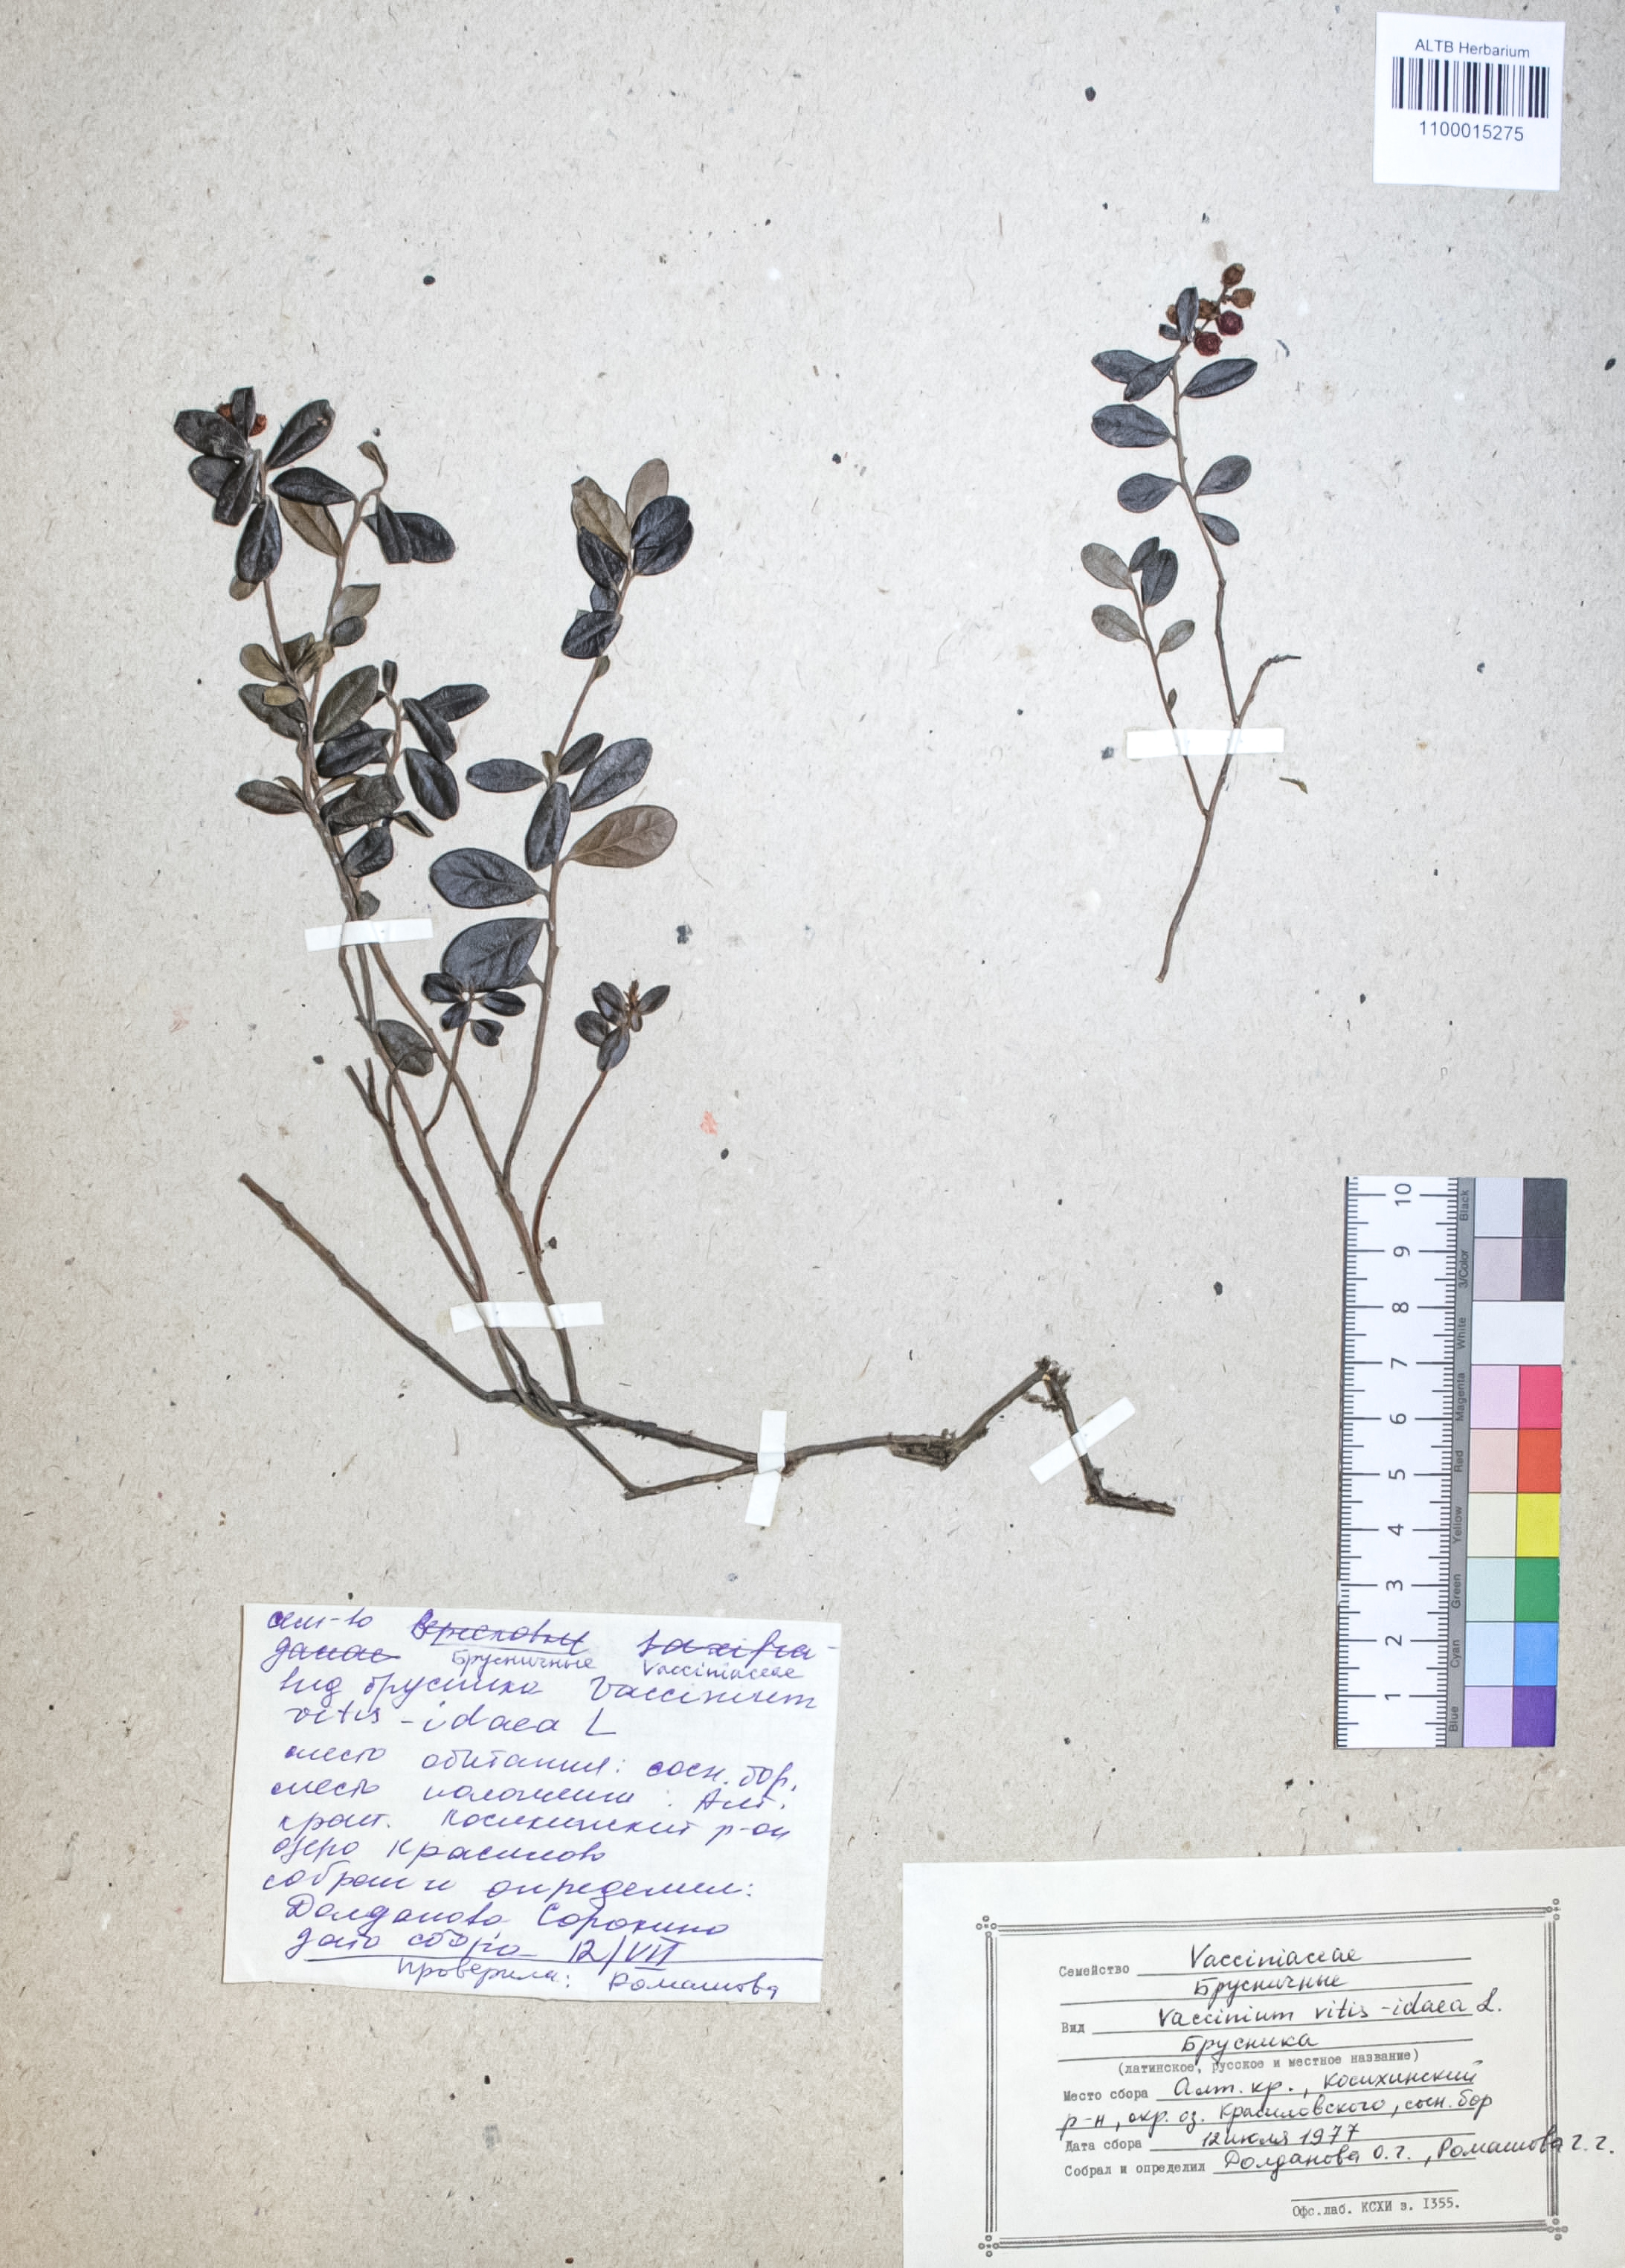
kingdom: Plantae
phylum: Tracheophyta
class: Magnoliopsida
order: Ericales
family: Ericaceae
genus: Vaccinium
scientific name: Vaccinium vitis-idaea
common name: Cowberry
